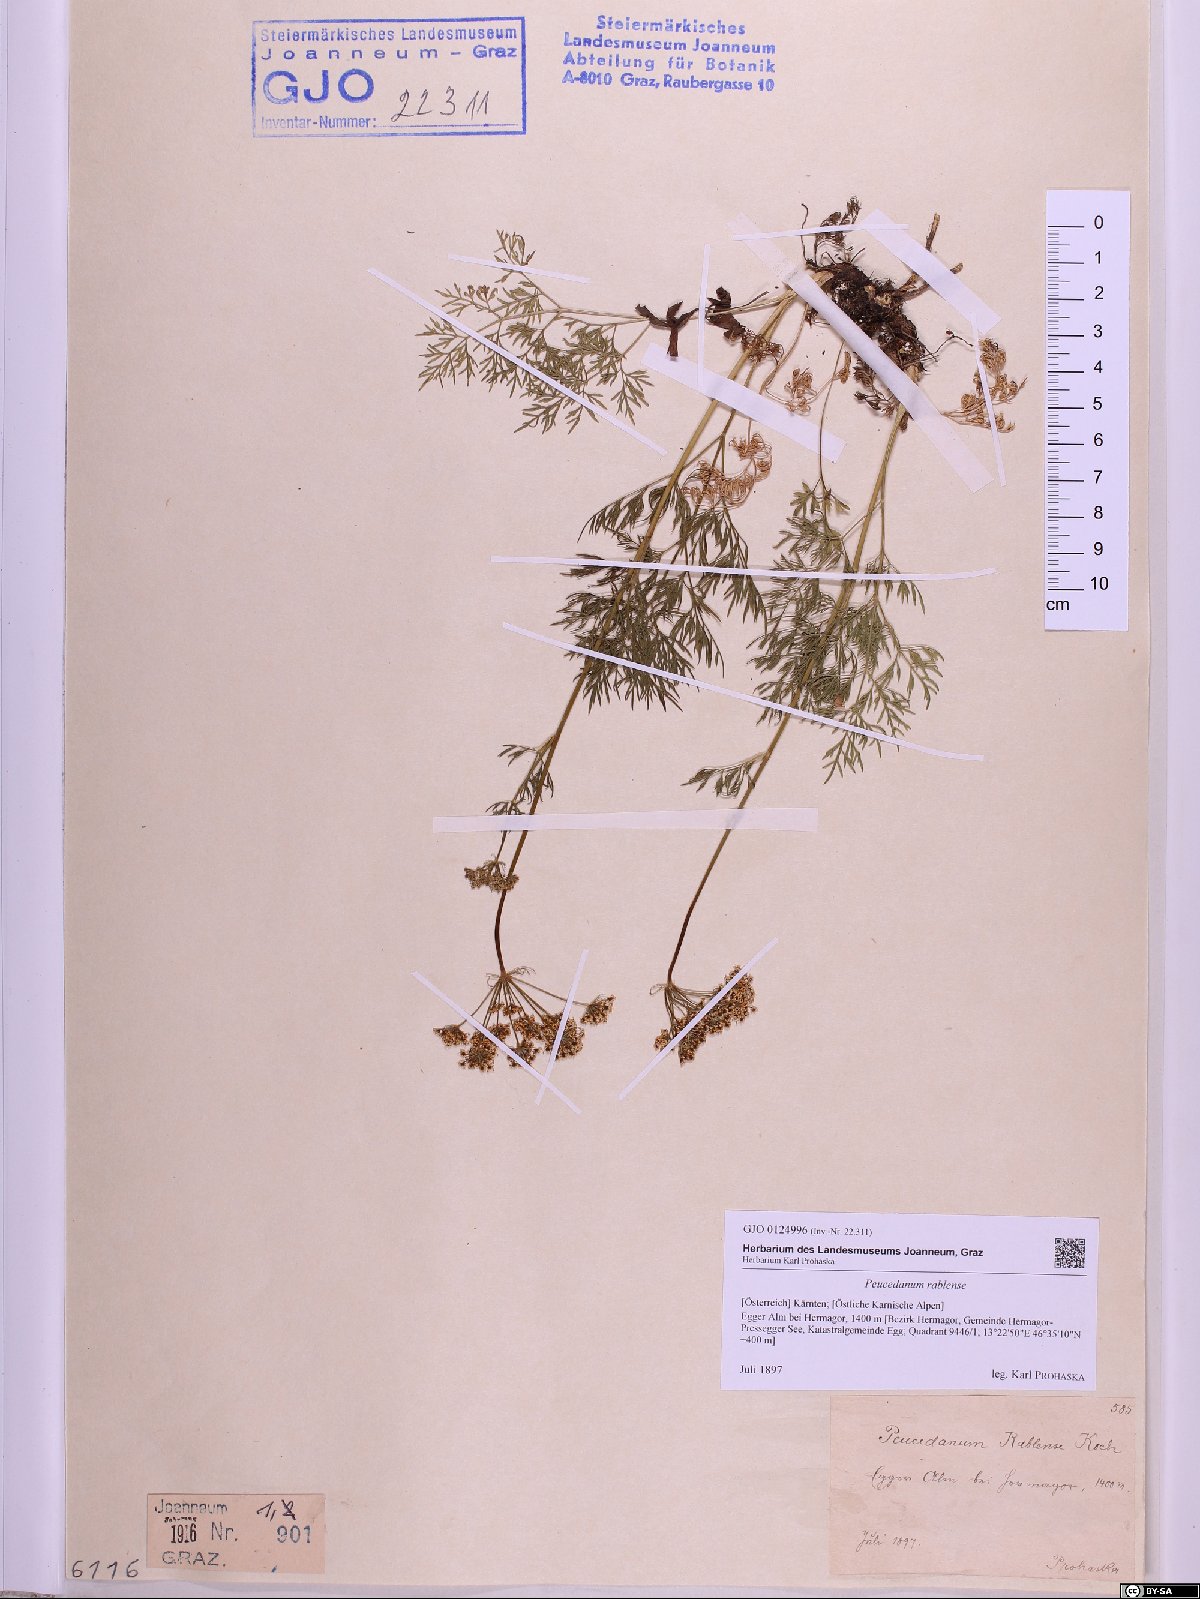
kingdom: Plantae
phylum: Tracheophyta
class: Magnoliopsida
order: Apiales
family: Apiaceae
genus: Peucedanum
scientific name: Peucedanum rablense
